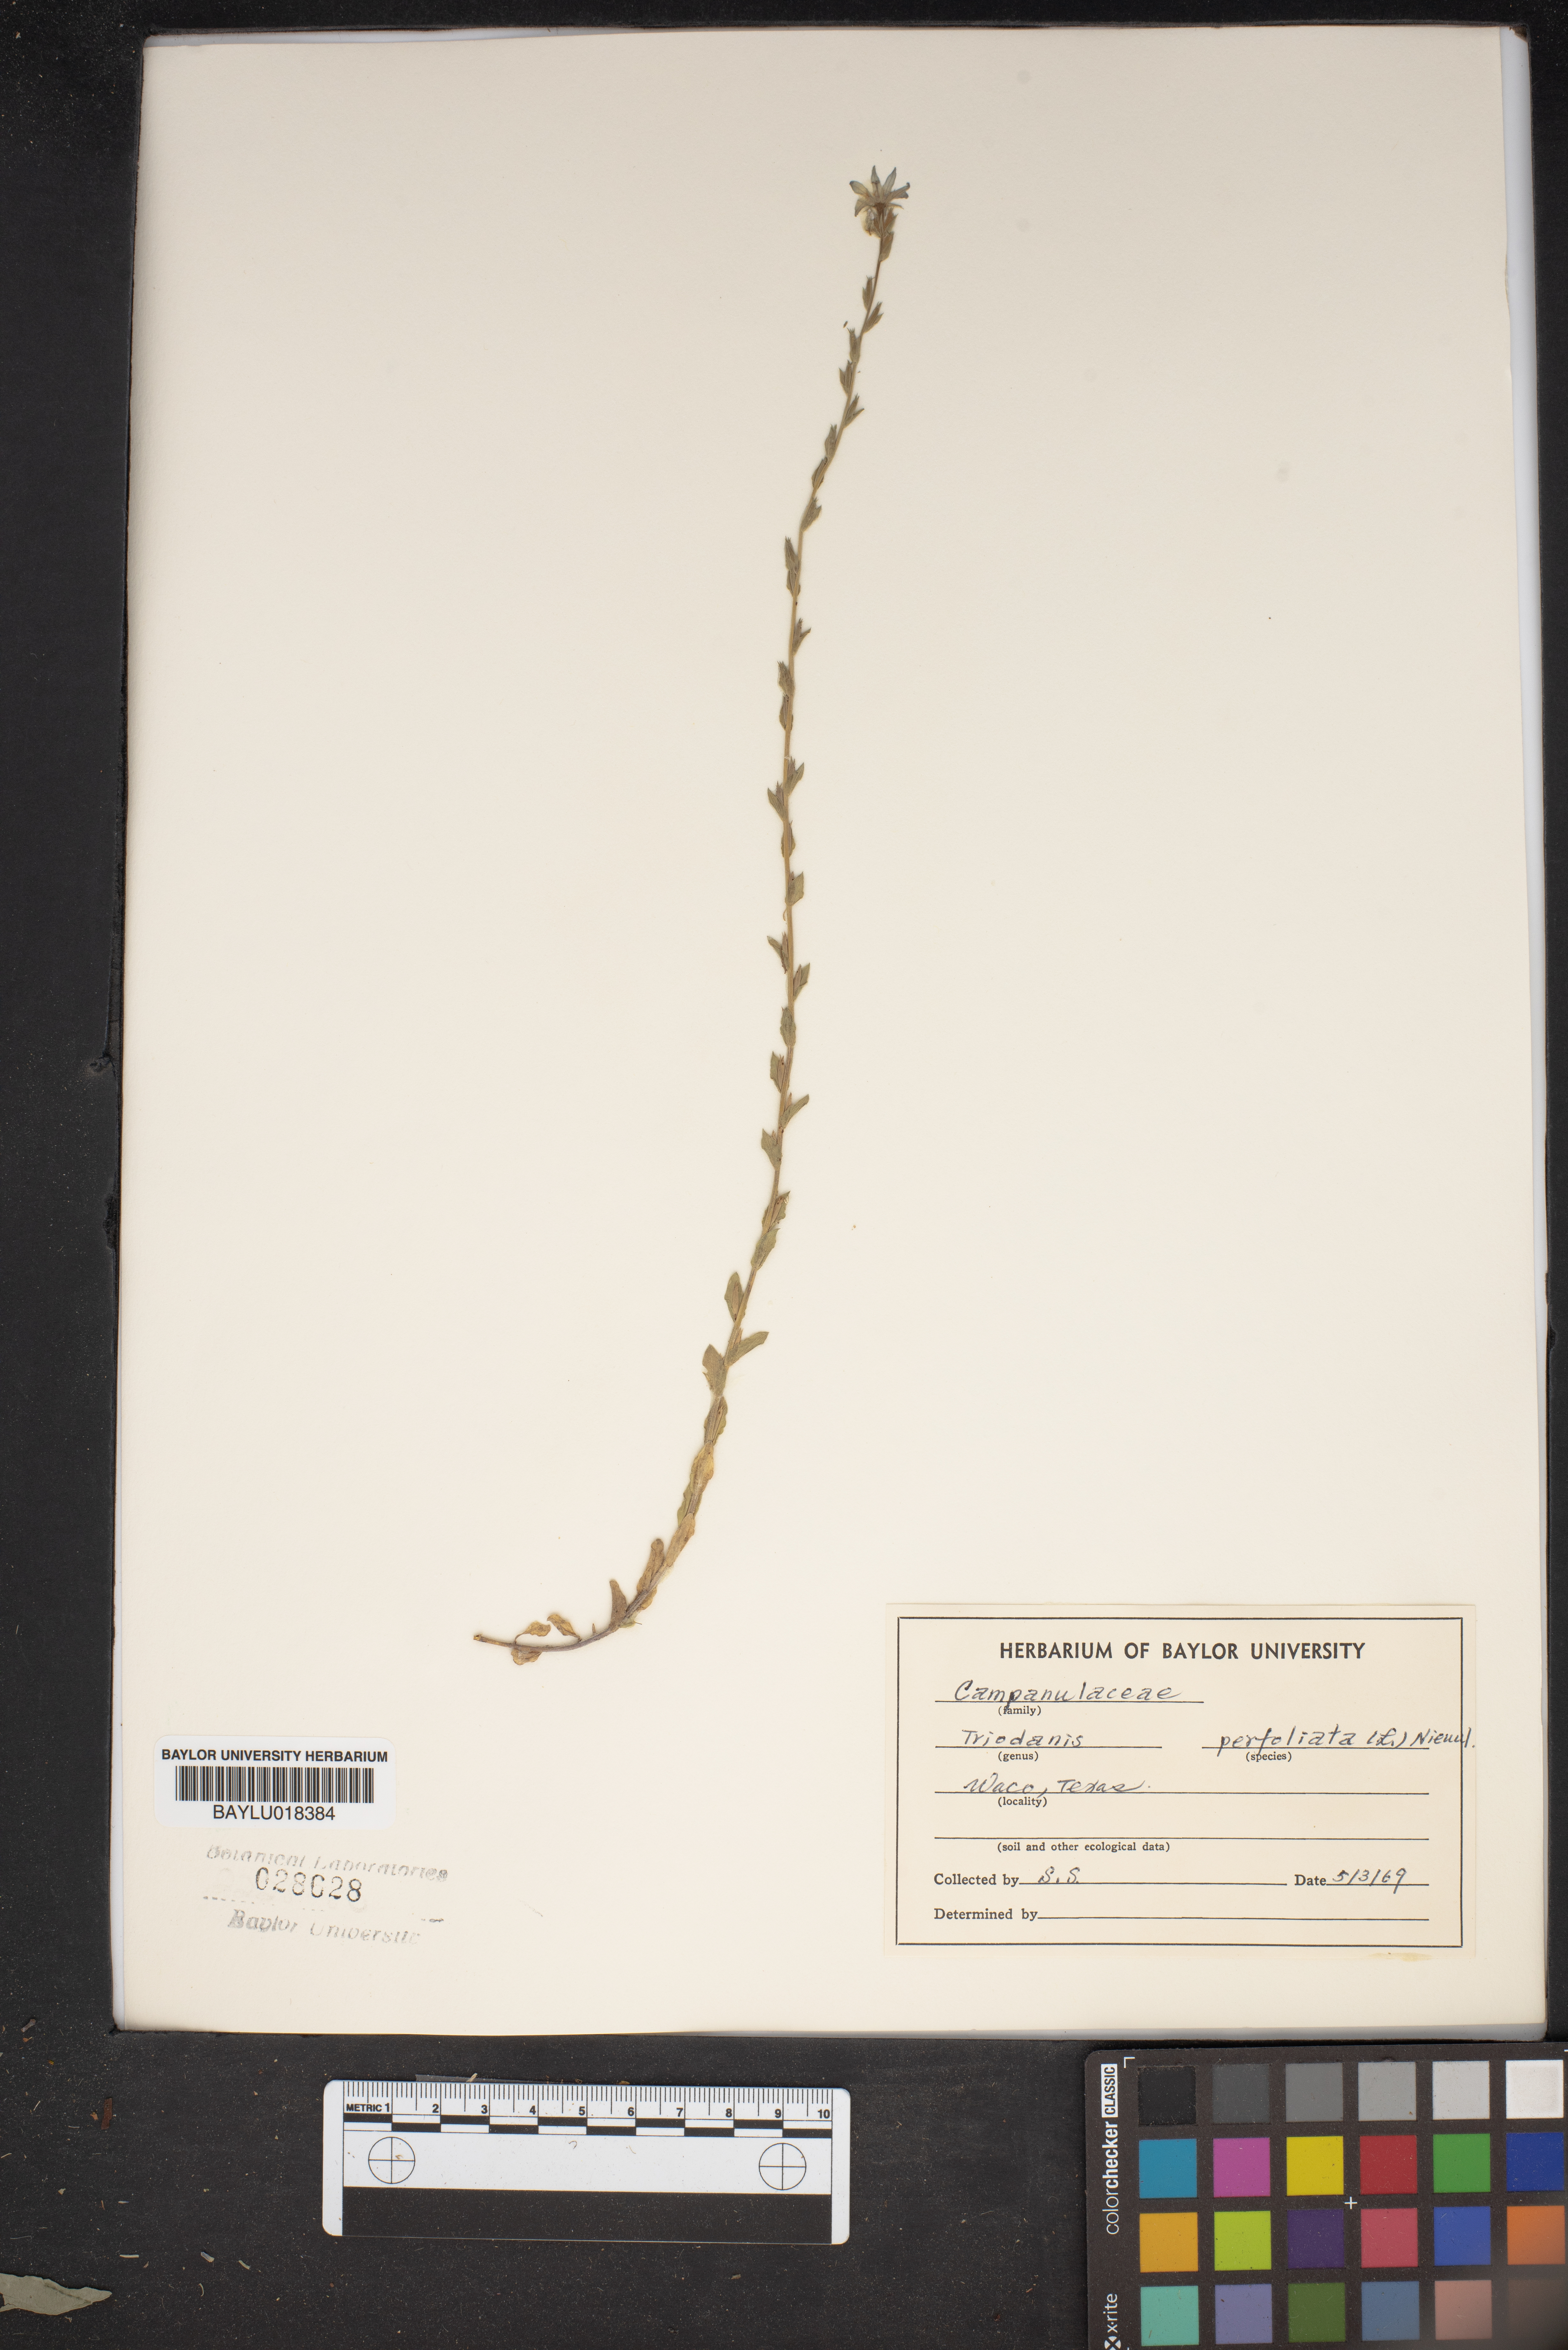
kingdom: Plantae
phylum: Tracheophyta
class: Magnoliopsida
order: Asterales
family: Campanulaceae
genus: Triodanis
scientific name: Triodanis perfoliata
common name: Clasping venus' looking-glass
